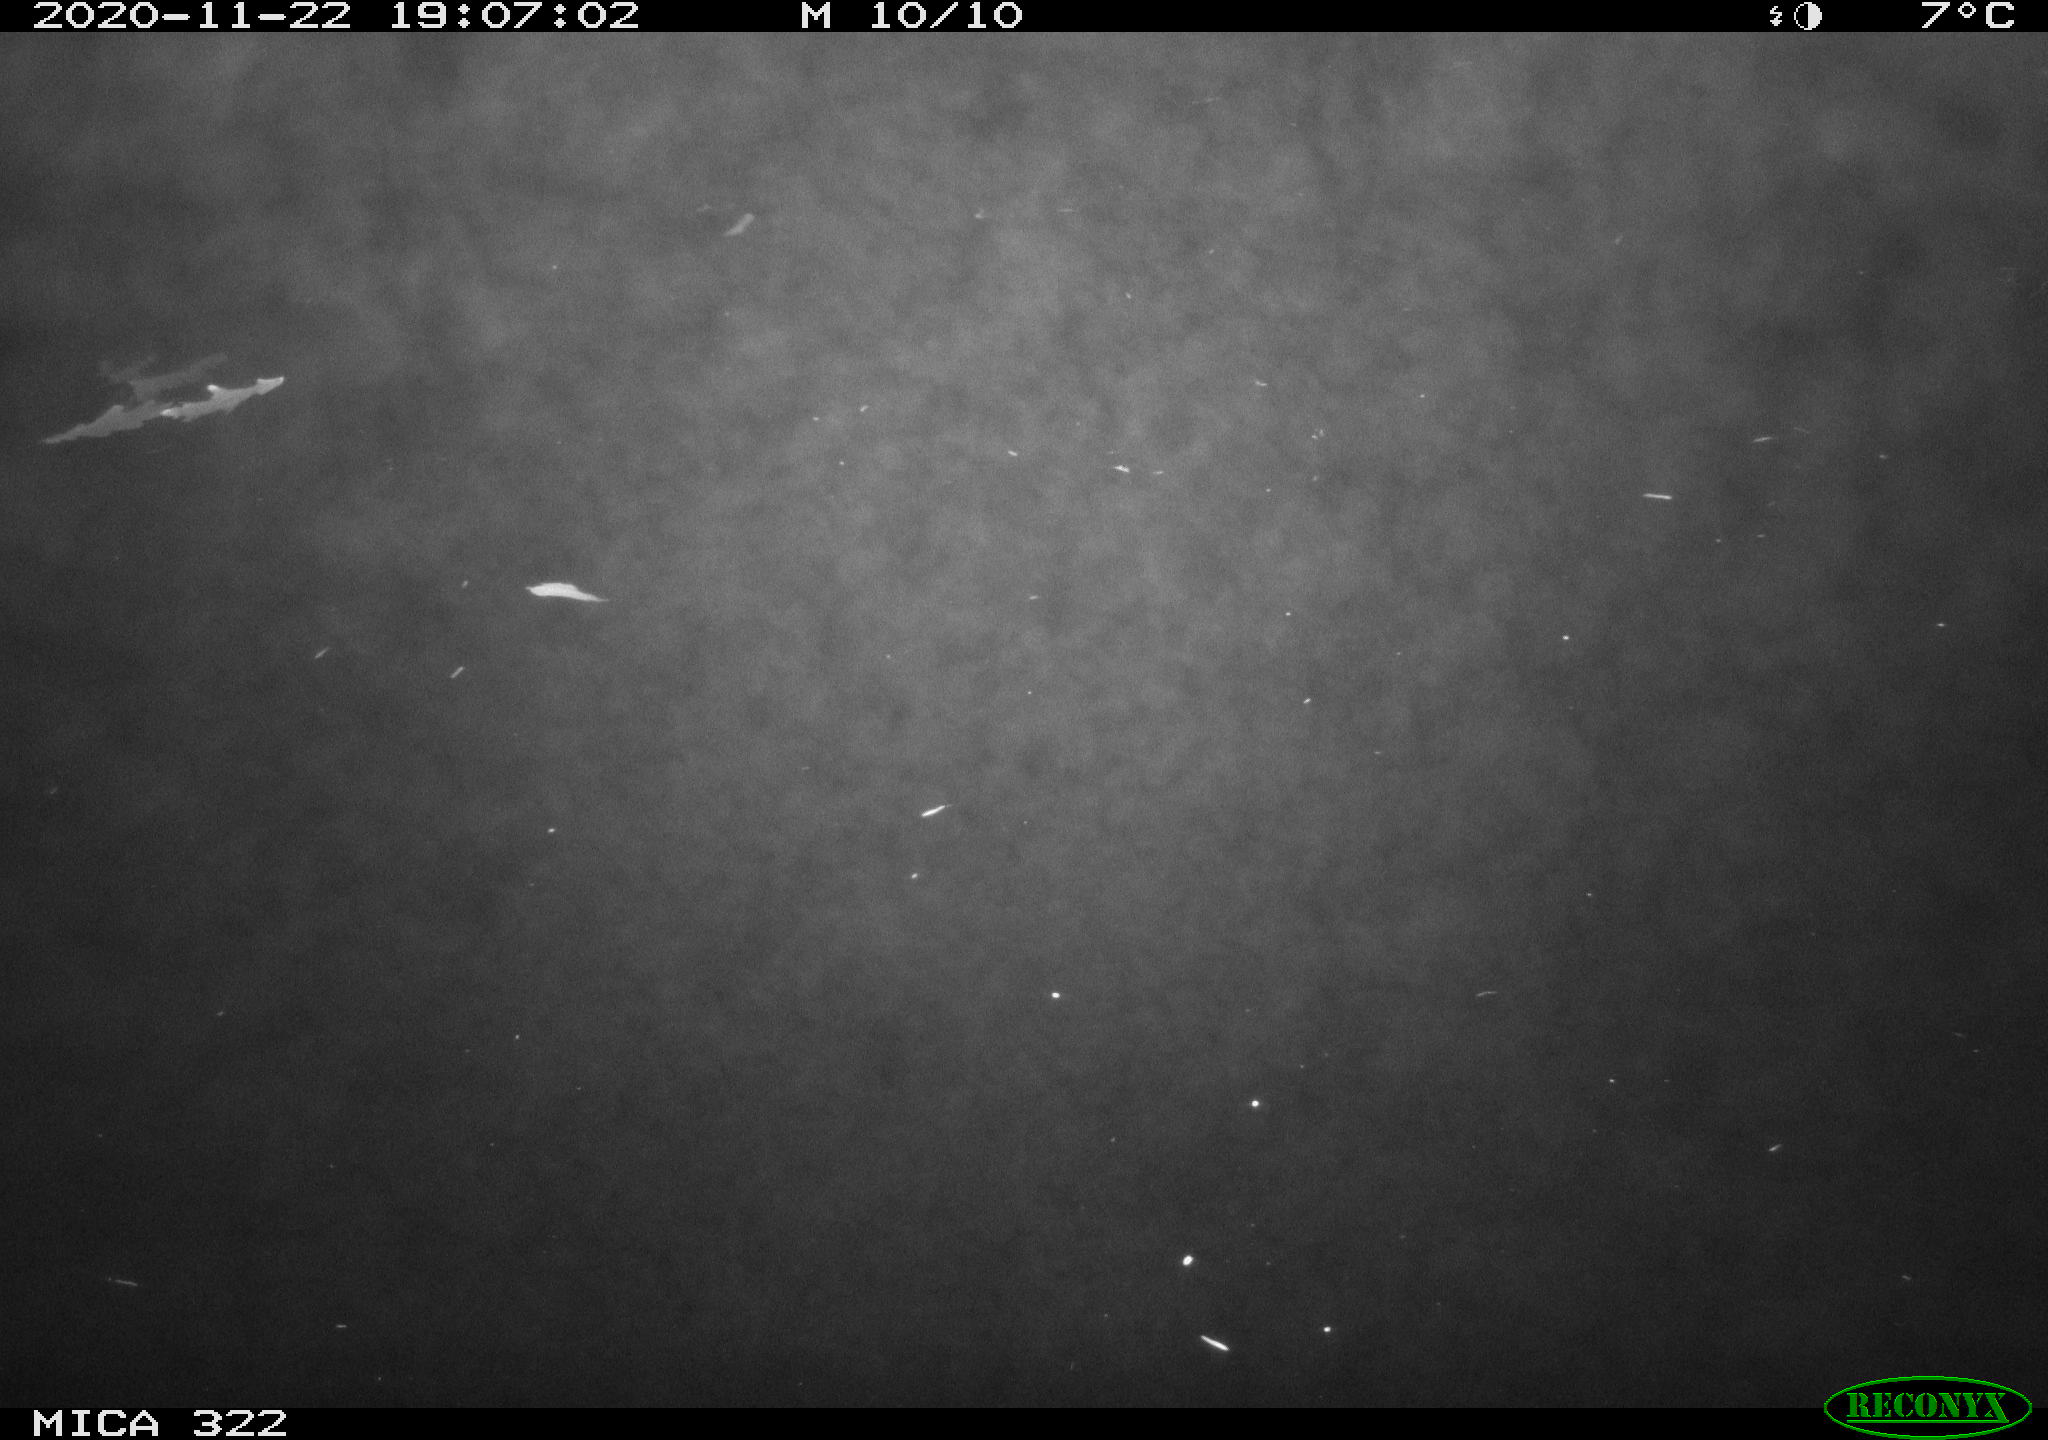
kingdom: Animalia
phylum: Chordata
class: Mammalia
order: Rodentia
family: Cricetidae
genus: Ondatra
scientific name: Ondatra zibethicus
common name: Muskrat
